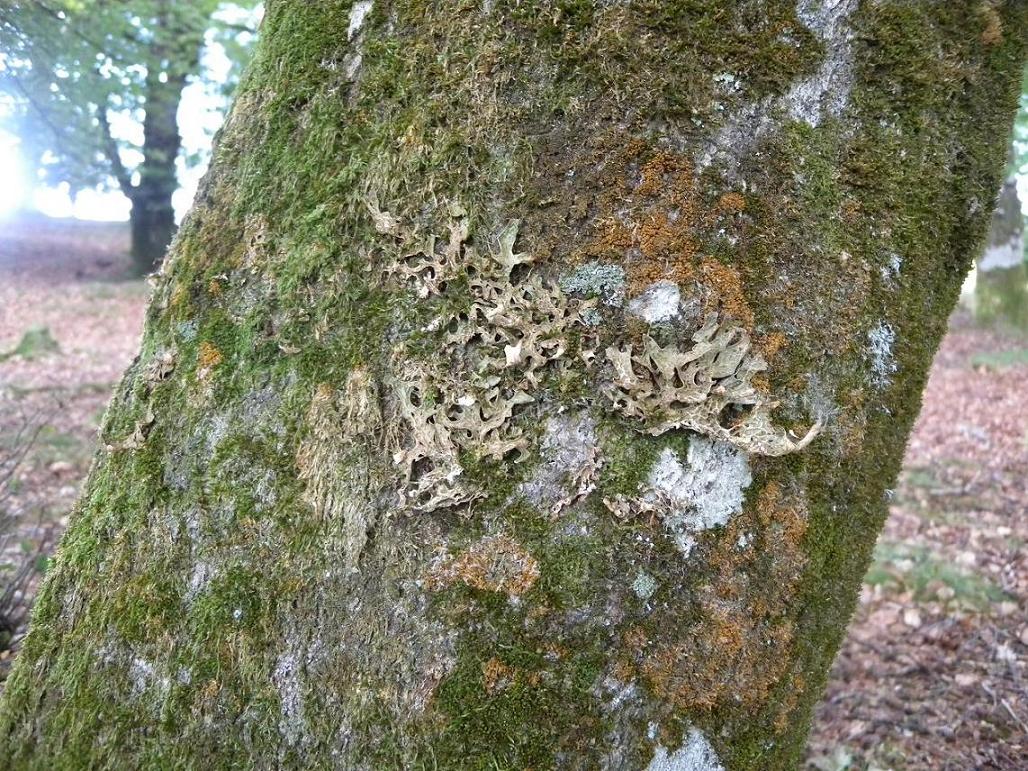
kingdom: Fungi
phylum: Ascomycota
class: Lecanoromycetes
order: Peltigerales
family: Lobariaceae
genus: Lobaria
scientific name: Lobaria pulmonaria
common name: almindelig lungelav
